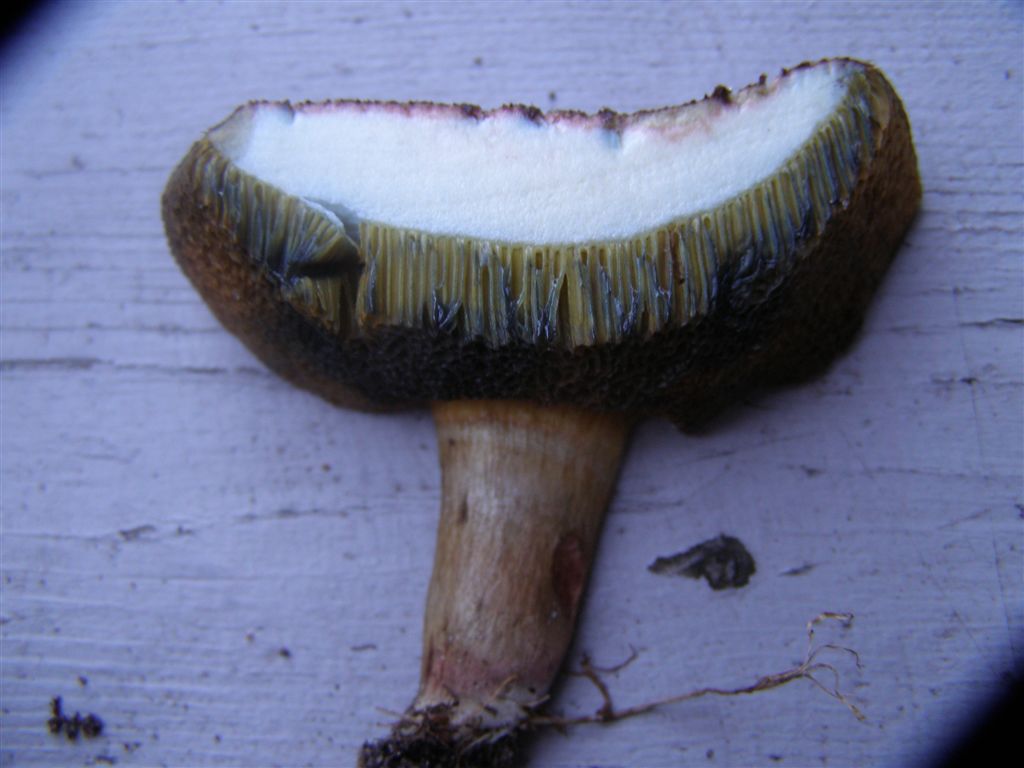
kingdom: Fungi
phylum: Basidiomycota
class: Agaricomycetes
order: Boletales
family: Boletaceae
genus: Hortiboletus
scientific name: Hortiboletus bubalinus
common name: aurora-rørhat
